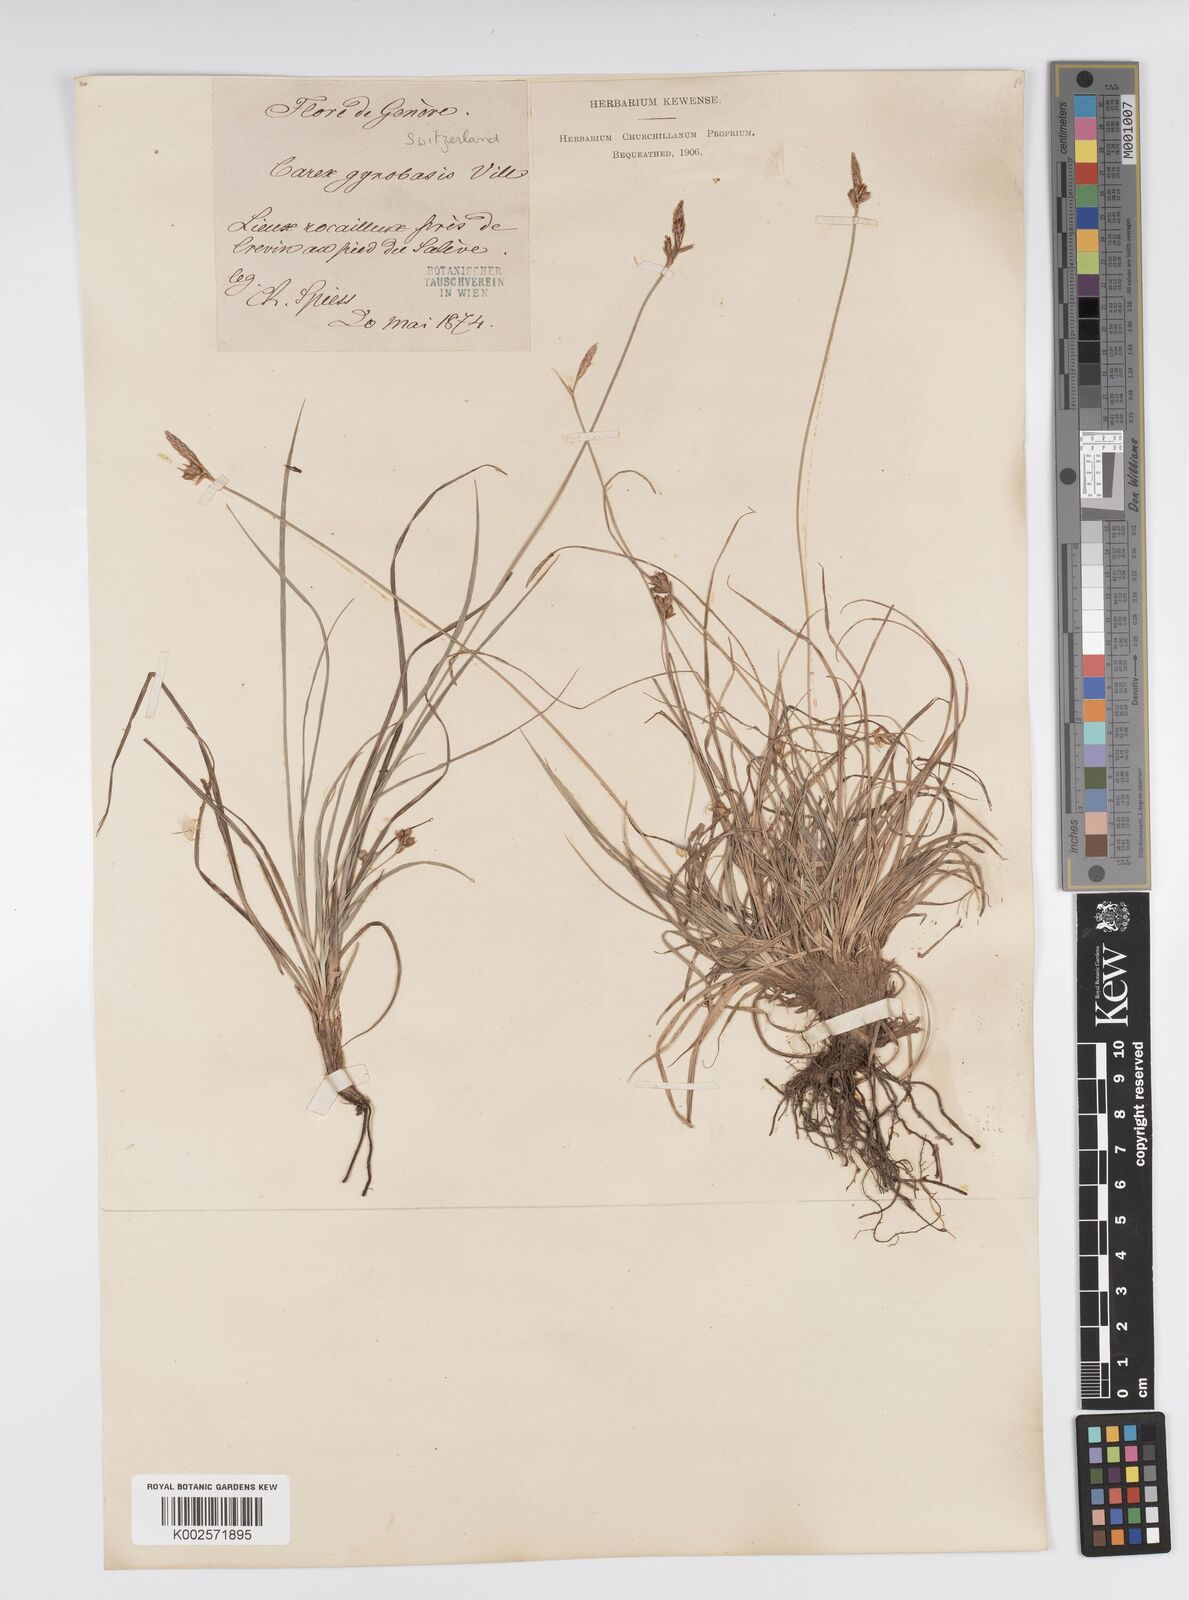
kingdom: Plantae
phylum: Tracheophyta
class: Liliopsida
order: Poales
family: Cyperaceae
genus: Carex
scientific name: Carex halleriana
